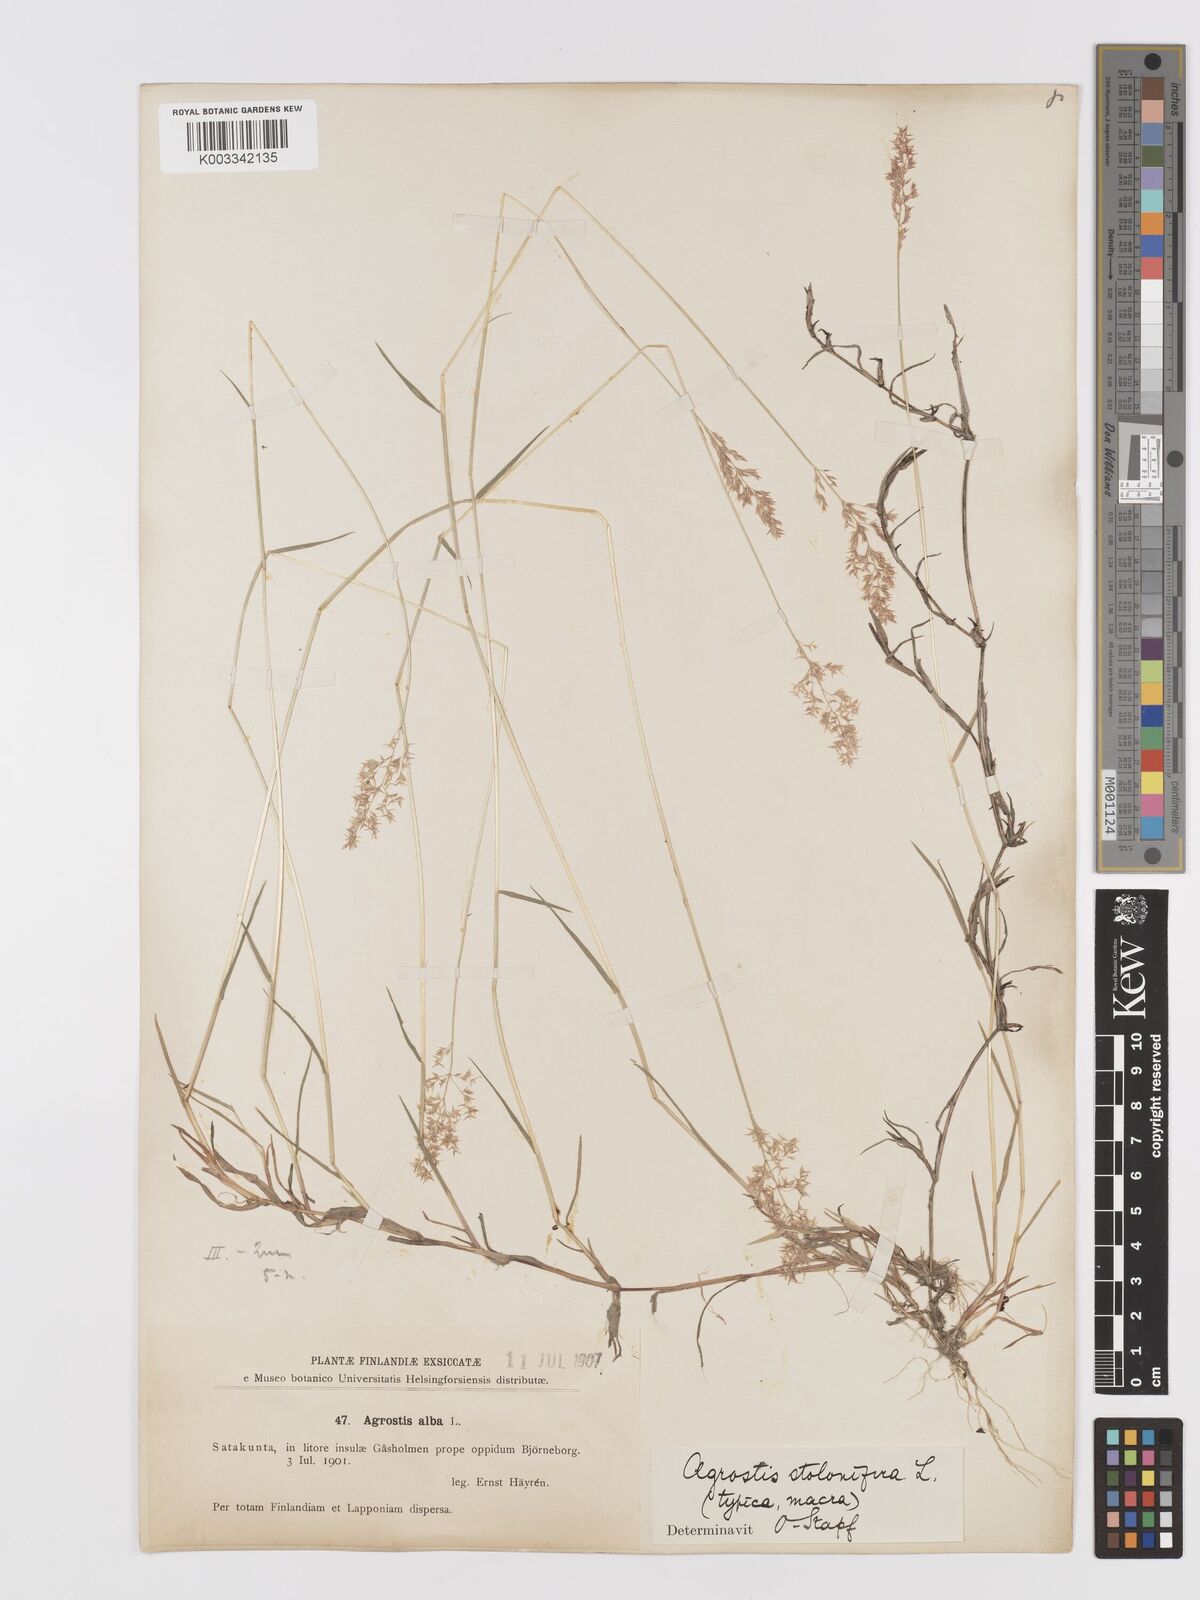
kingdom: Plantae
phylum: Tracheophyta
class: Liliopsida
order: Poales
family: Poaceae
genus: Agrostis
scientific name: Agrostis stolonifera
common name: Creeping bentgrass
